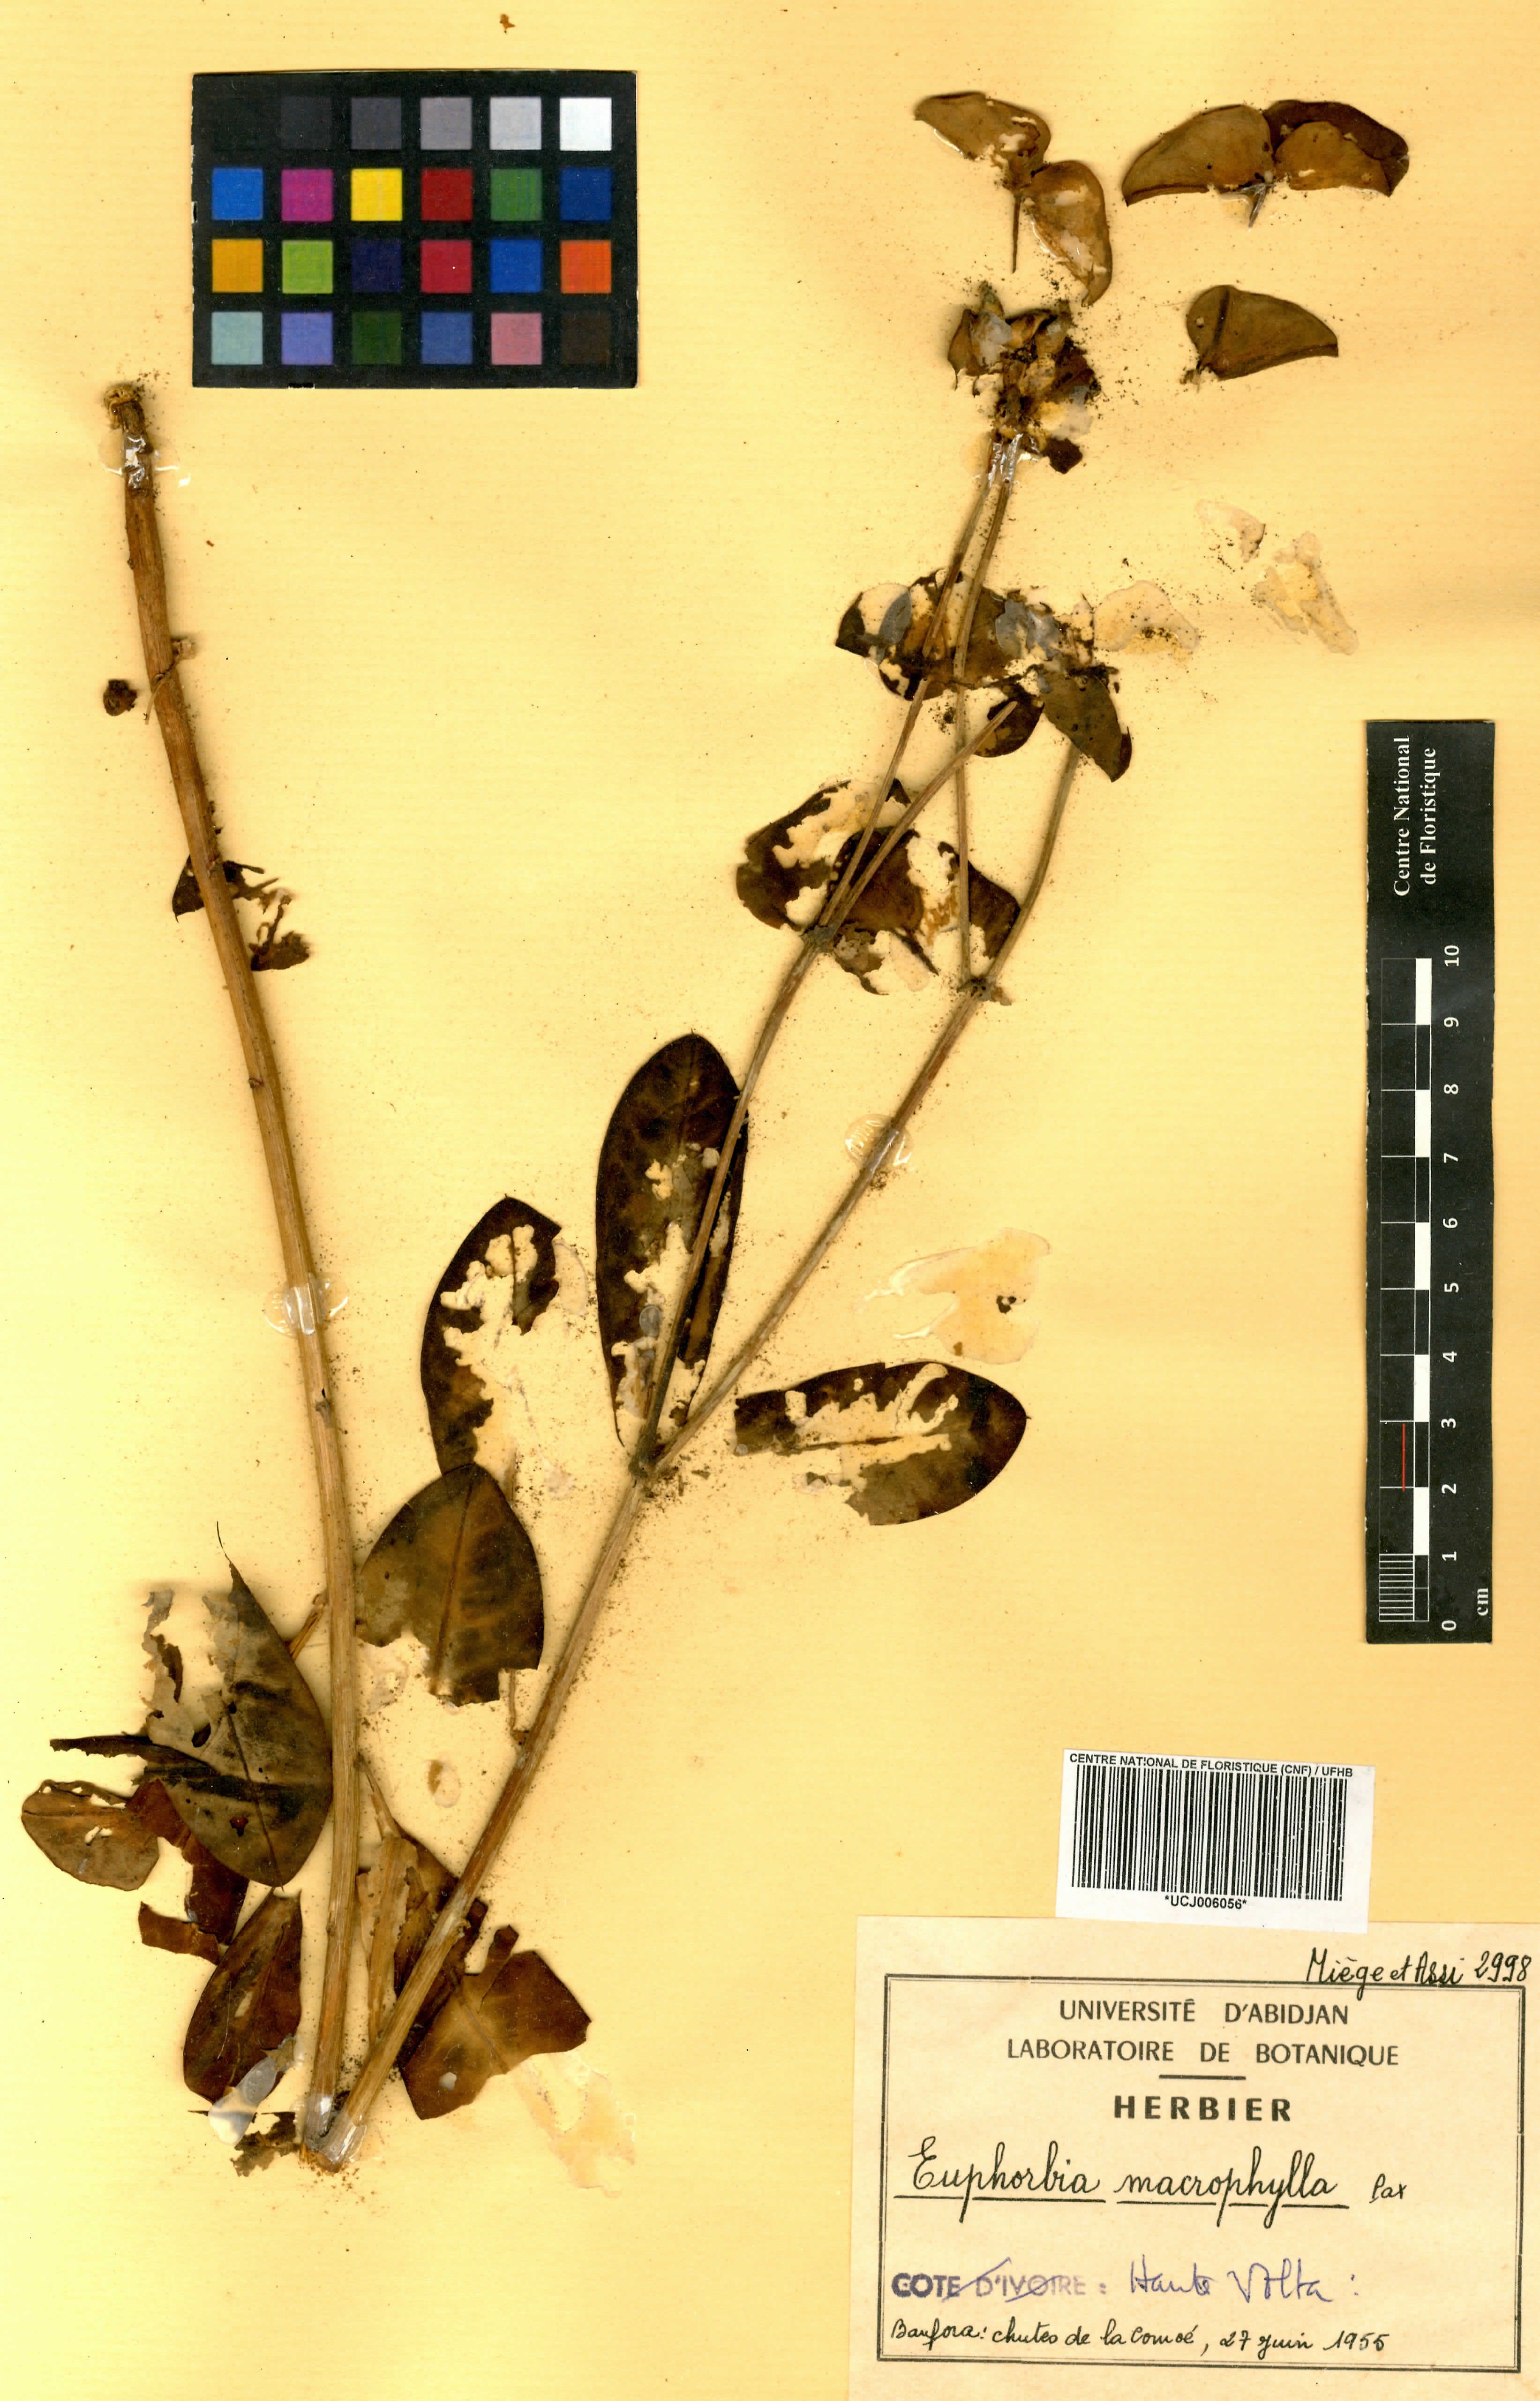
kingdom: Plantae
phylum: Tracheophyta
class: Magnoliopsida
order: Malpighiales
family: Euphorbiaceae
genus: Euphorbia
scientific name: Euphorbia macrophylla
